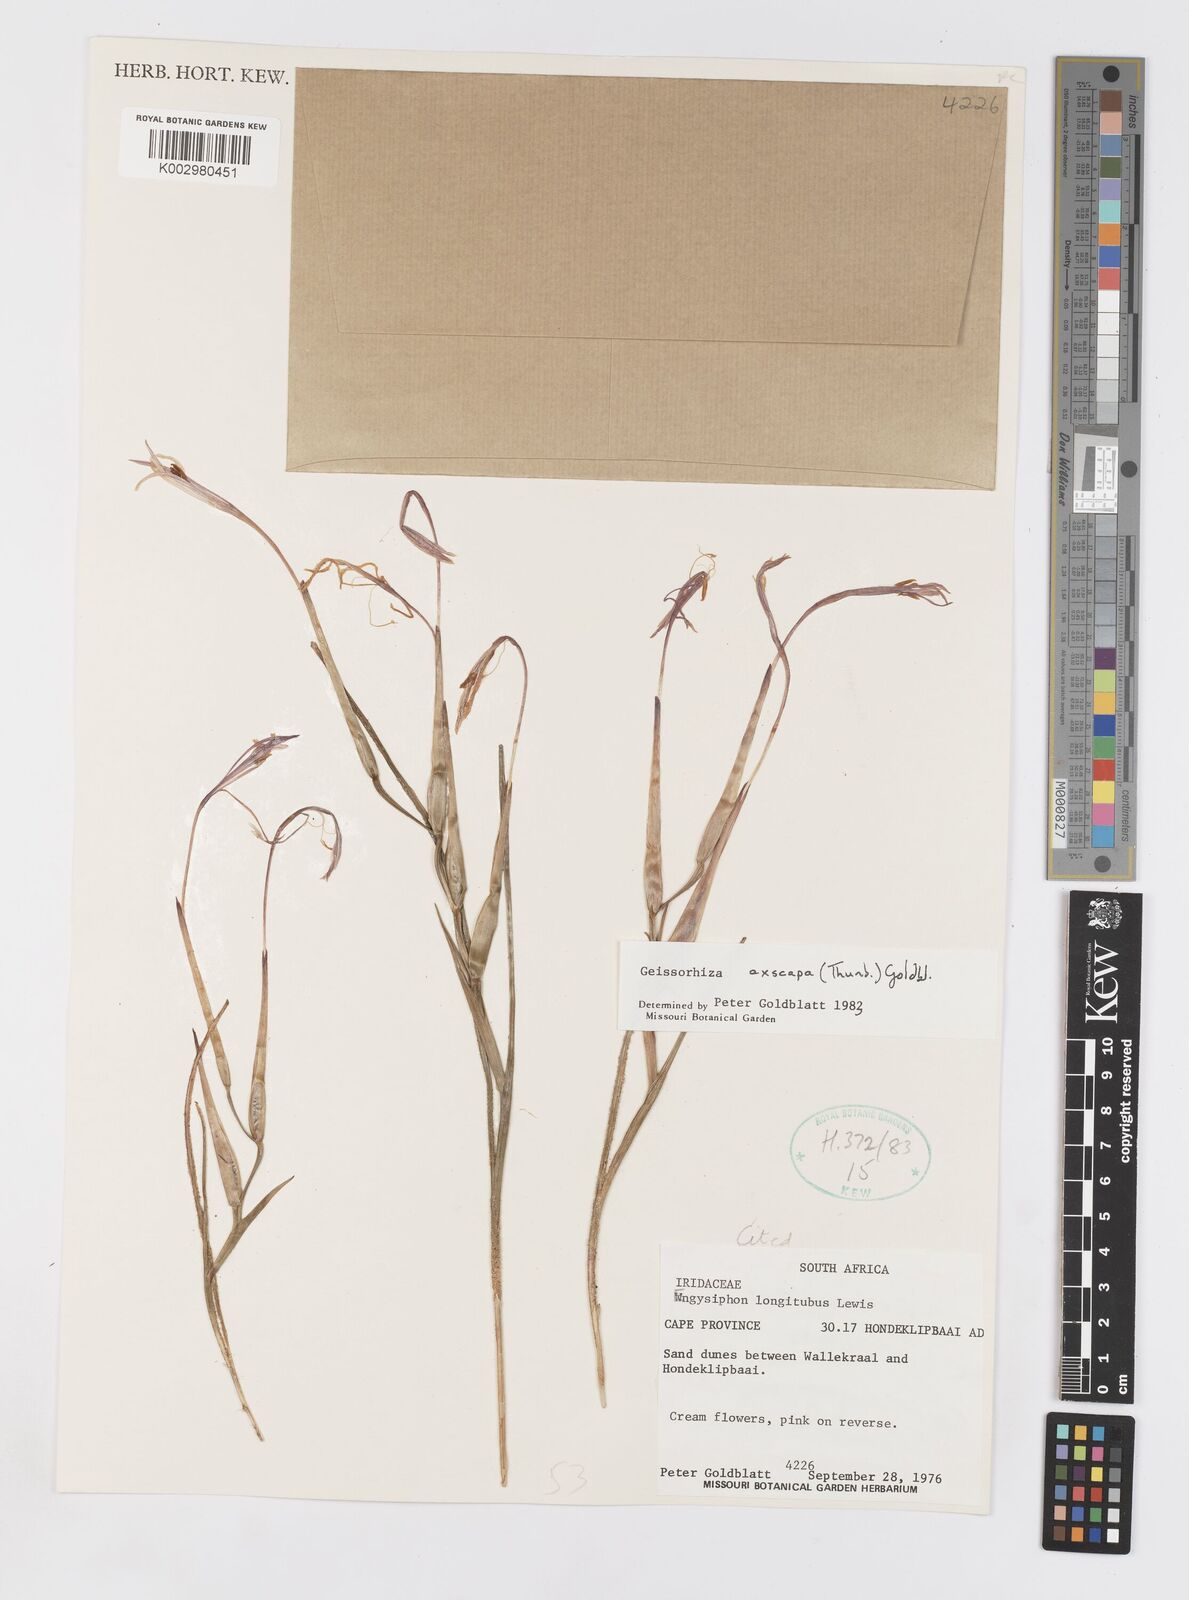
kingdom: Plantae
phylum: Tracheophyta
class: Liliopsida
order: Asparagales
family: Iridaceae
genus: Geissorhiza
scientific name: Geissorhiza exscapa
